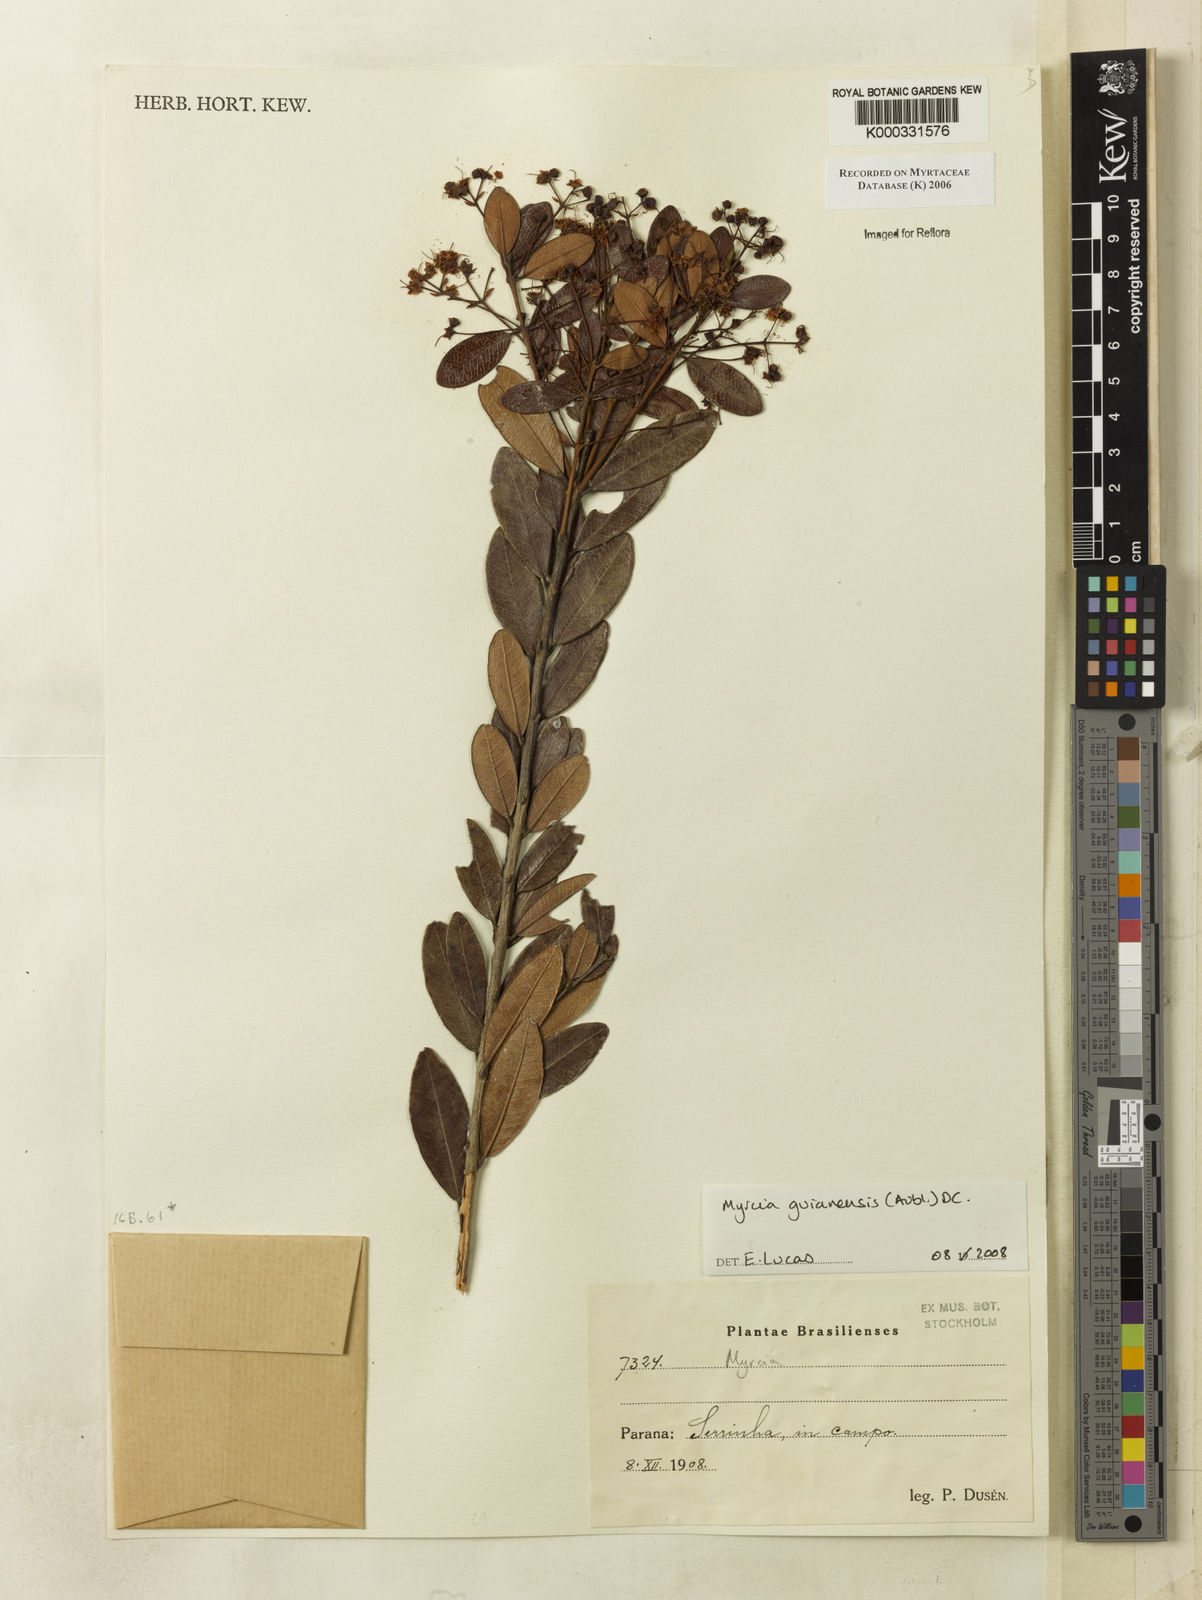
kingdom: Plantae
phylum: Tracheophyta
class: Magnoliopsida
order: Myrtales
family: Myrtaceae
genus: Myrcia
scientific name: Myrcia
